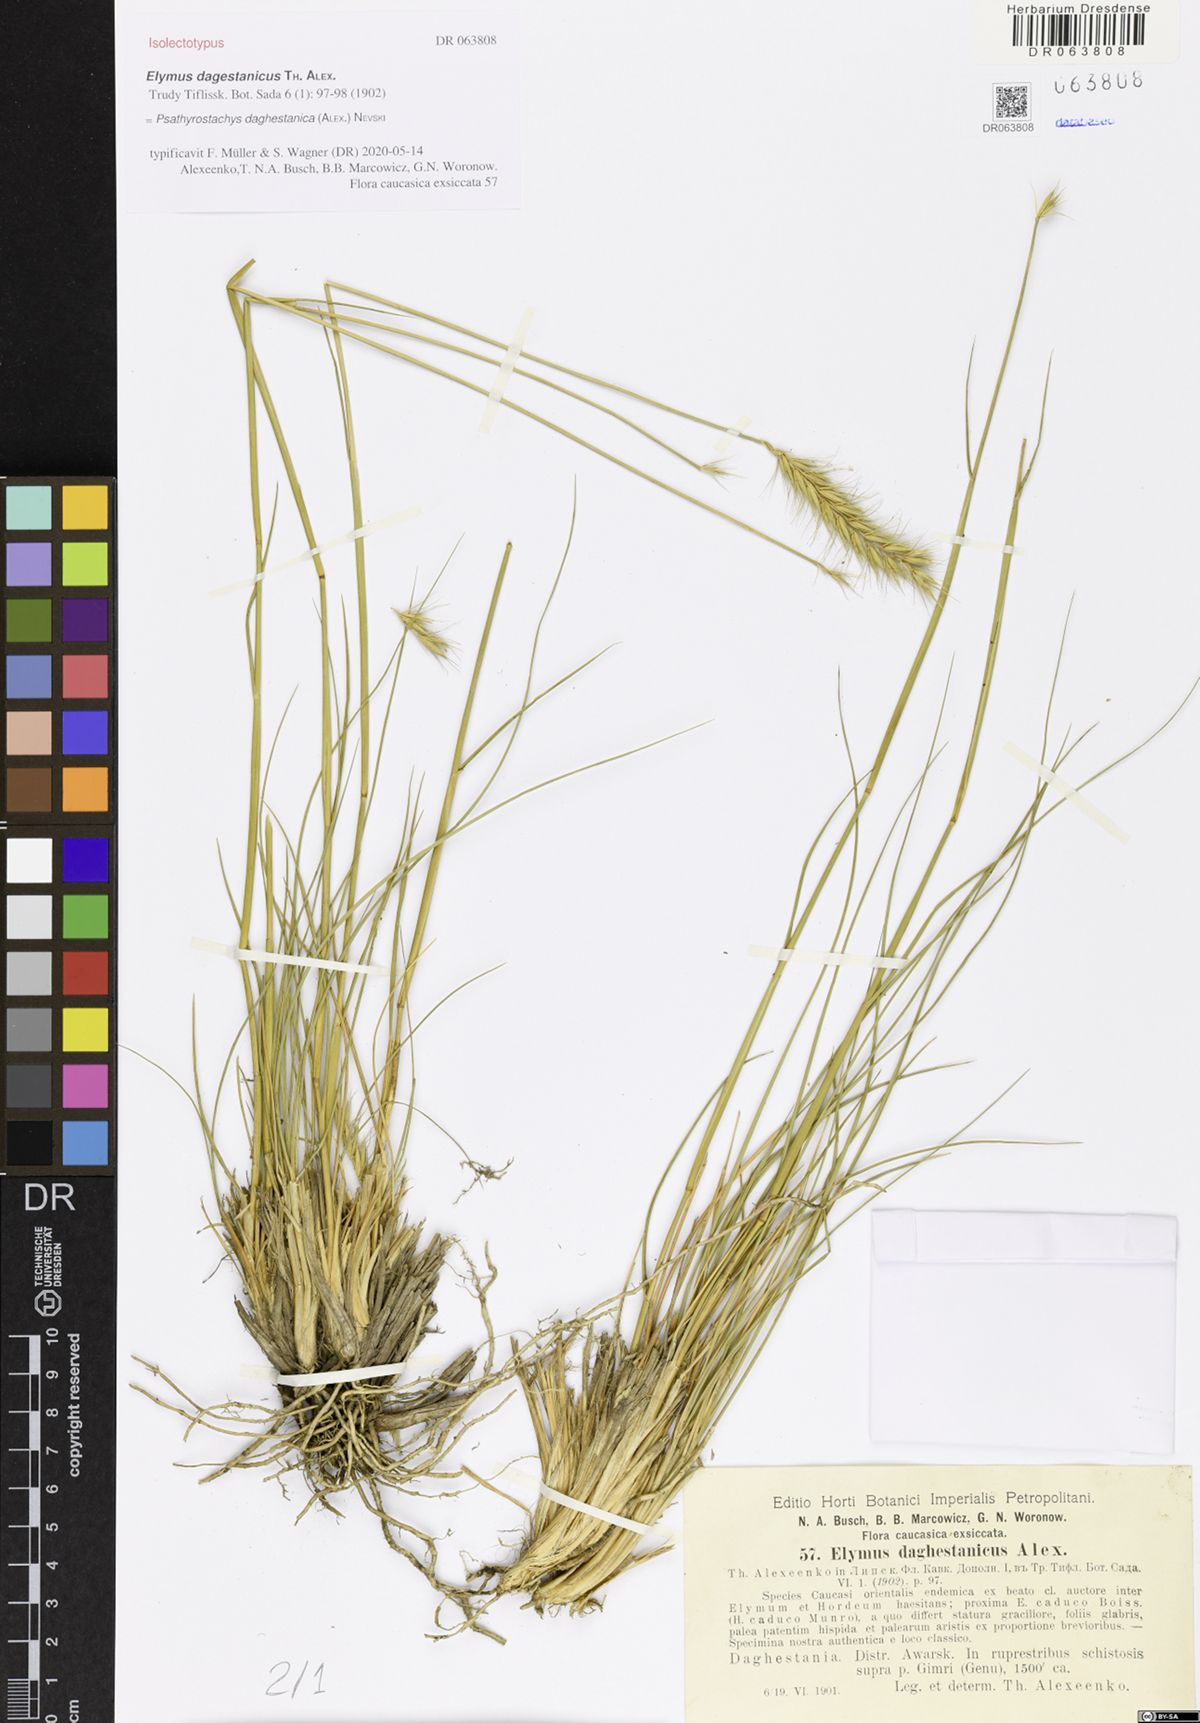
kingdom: Plantae
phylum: Tracheophyta
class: Liliopsida
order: Poales
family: Poaceae
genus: Psathyrostachys
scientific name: Psathyrostachys daghestanica
